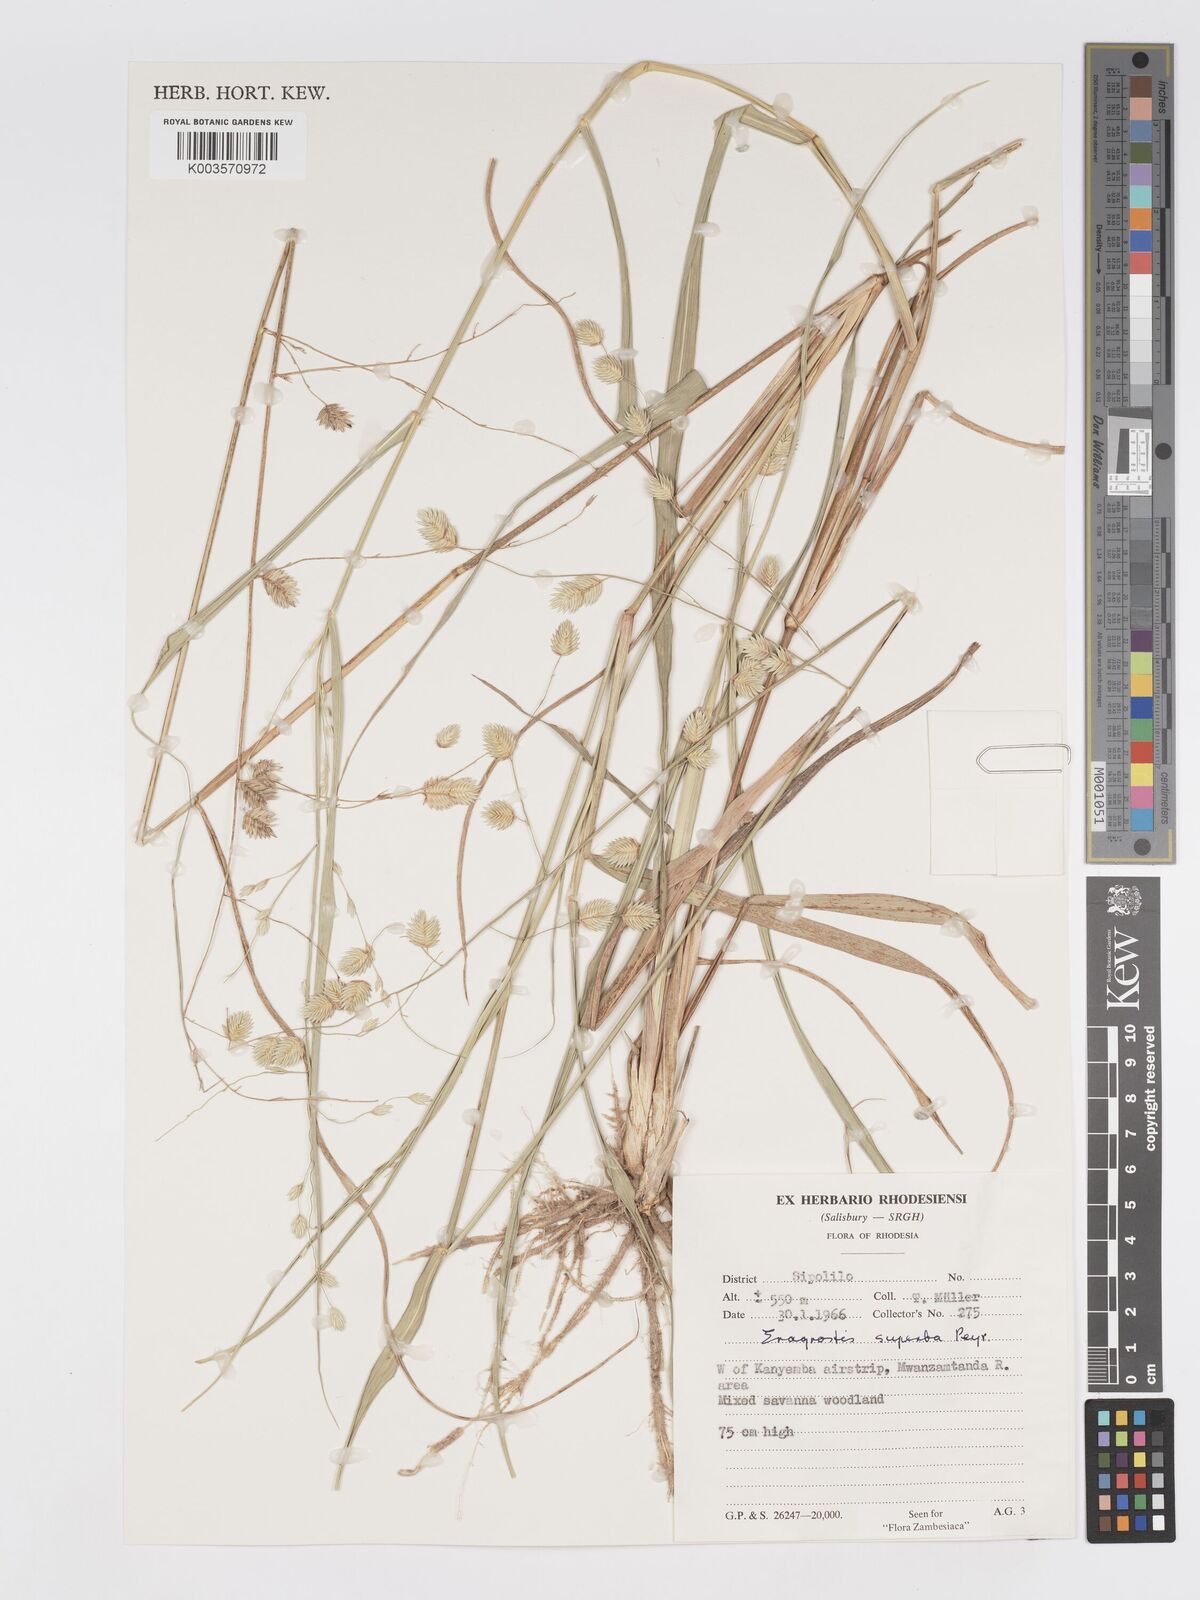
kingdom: Plantae
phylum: Tracheophyta
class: Liliopsida
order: Poales
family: Poaceae
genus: Eragrostis
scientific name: Eragrostis superba
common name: Wilman lovegrass
